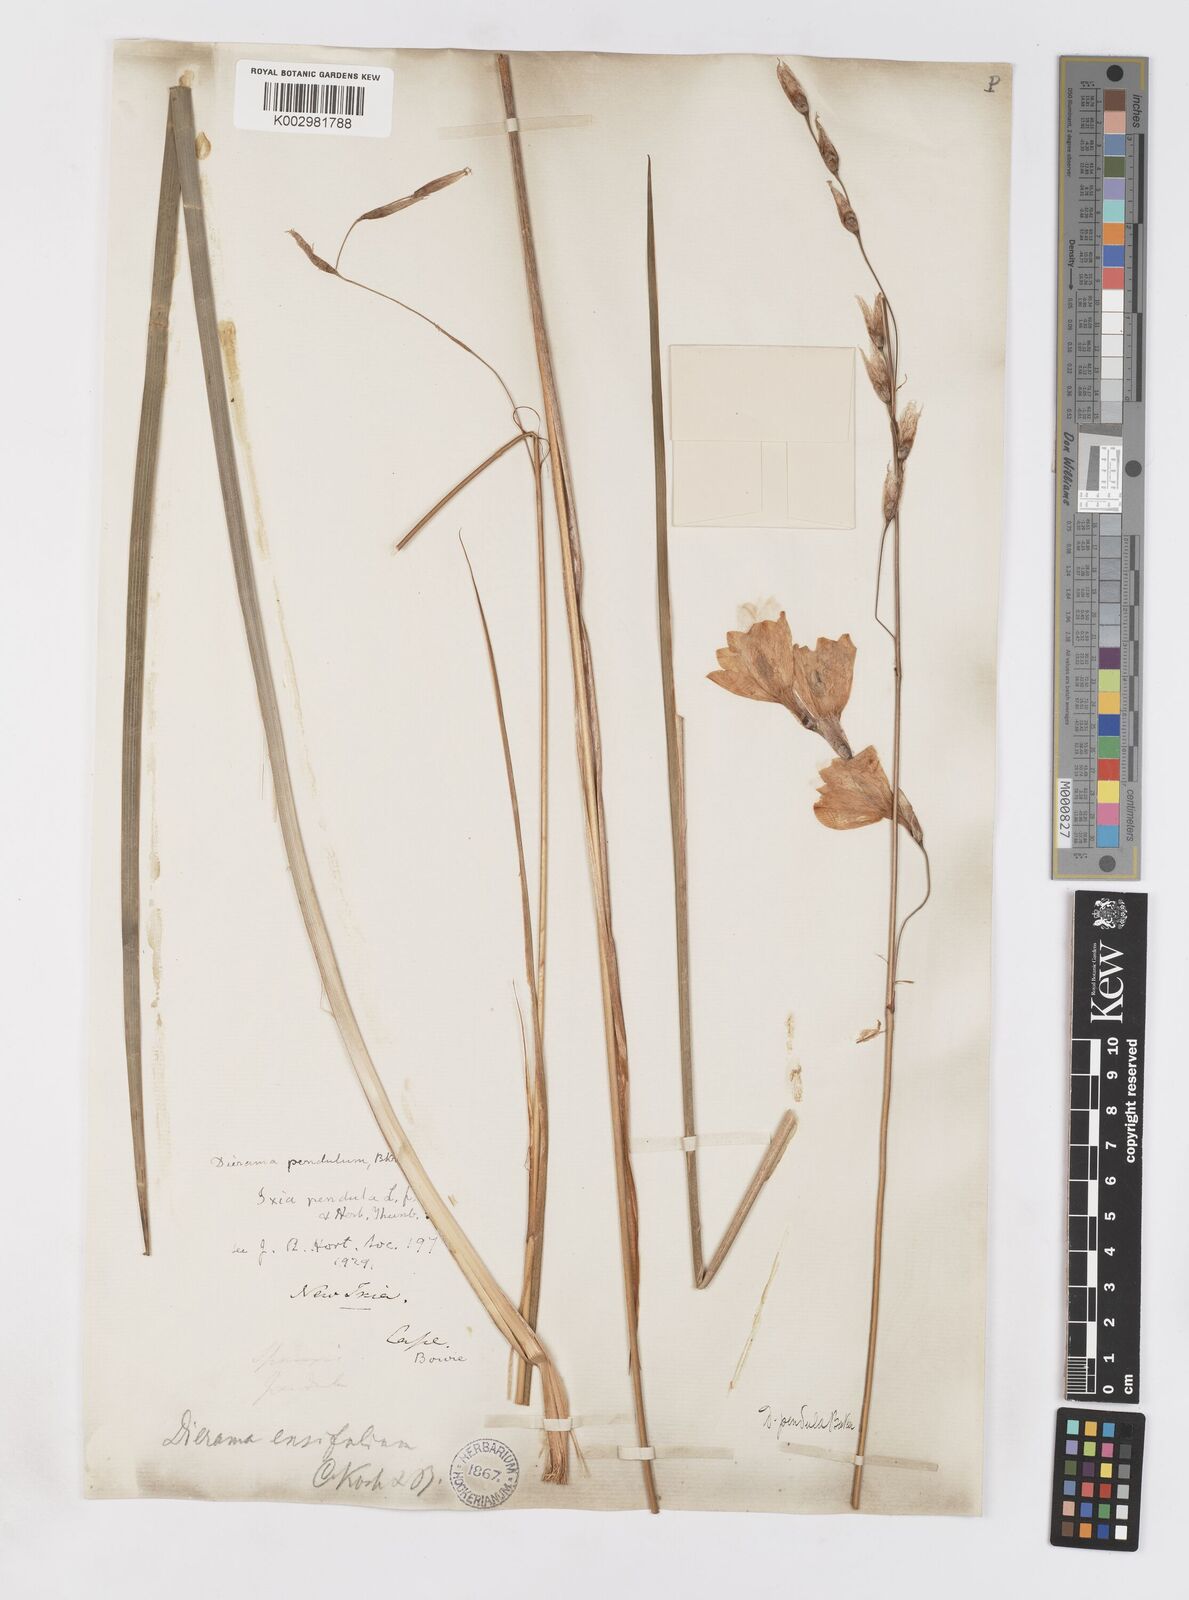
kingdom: Plantae
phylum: Tracheophyta
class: Liliopsida
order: Asparagales
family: Iridaceae
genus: Dierama
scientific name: Dierama pendulum
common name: Grassy-bell
